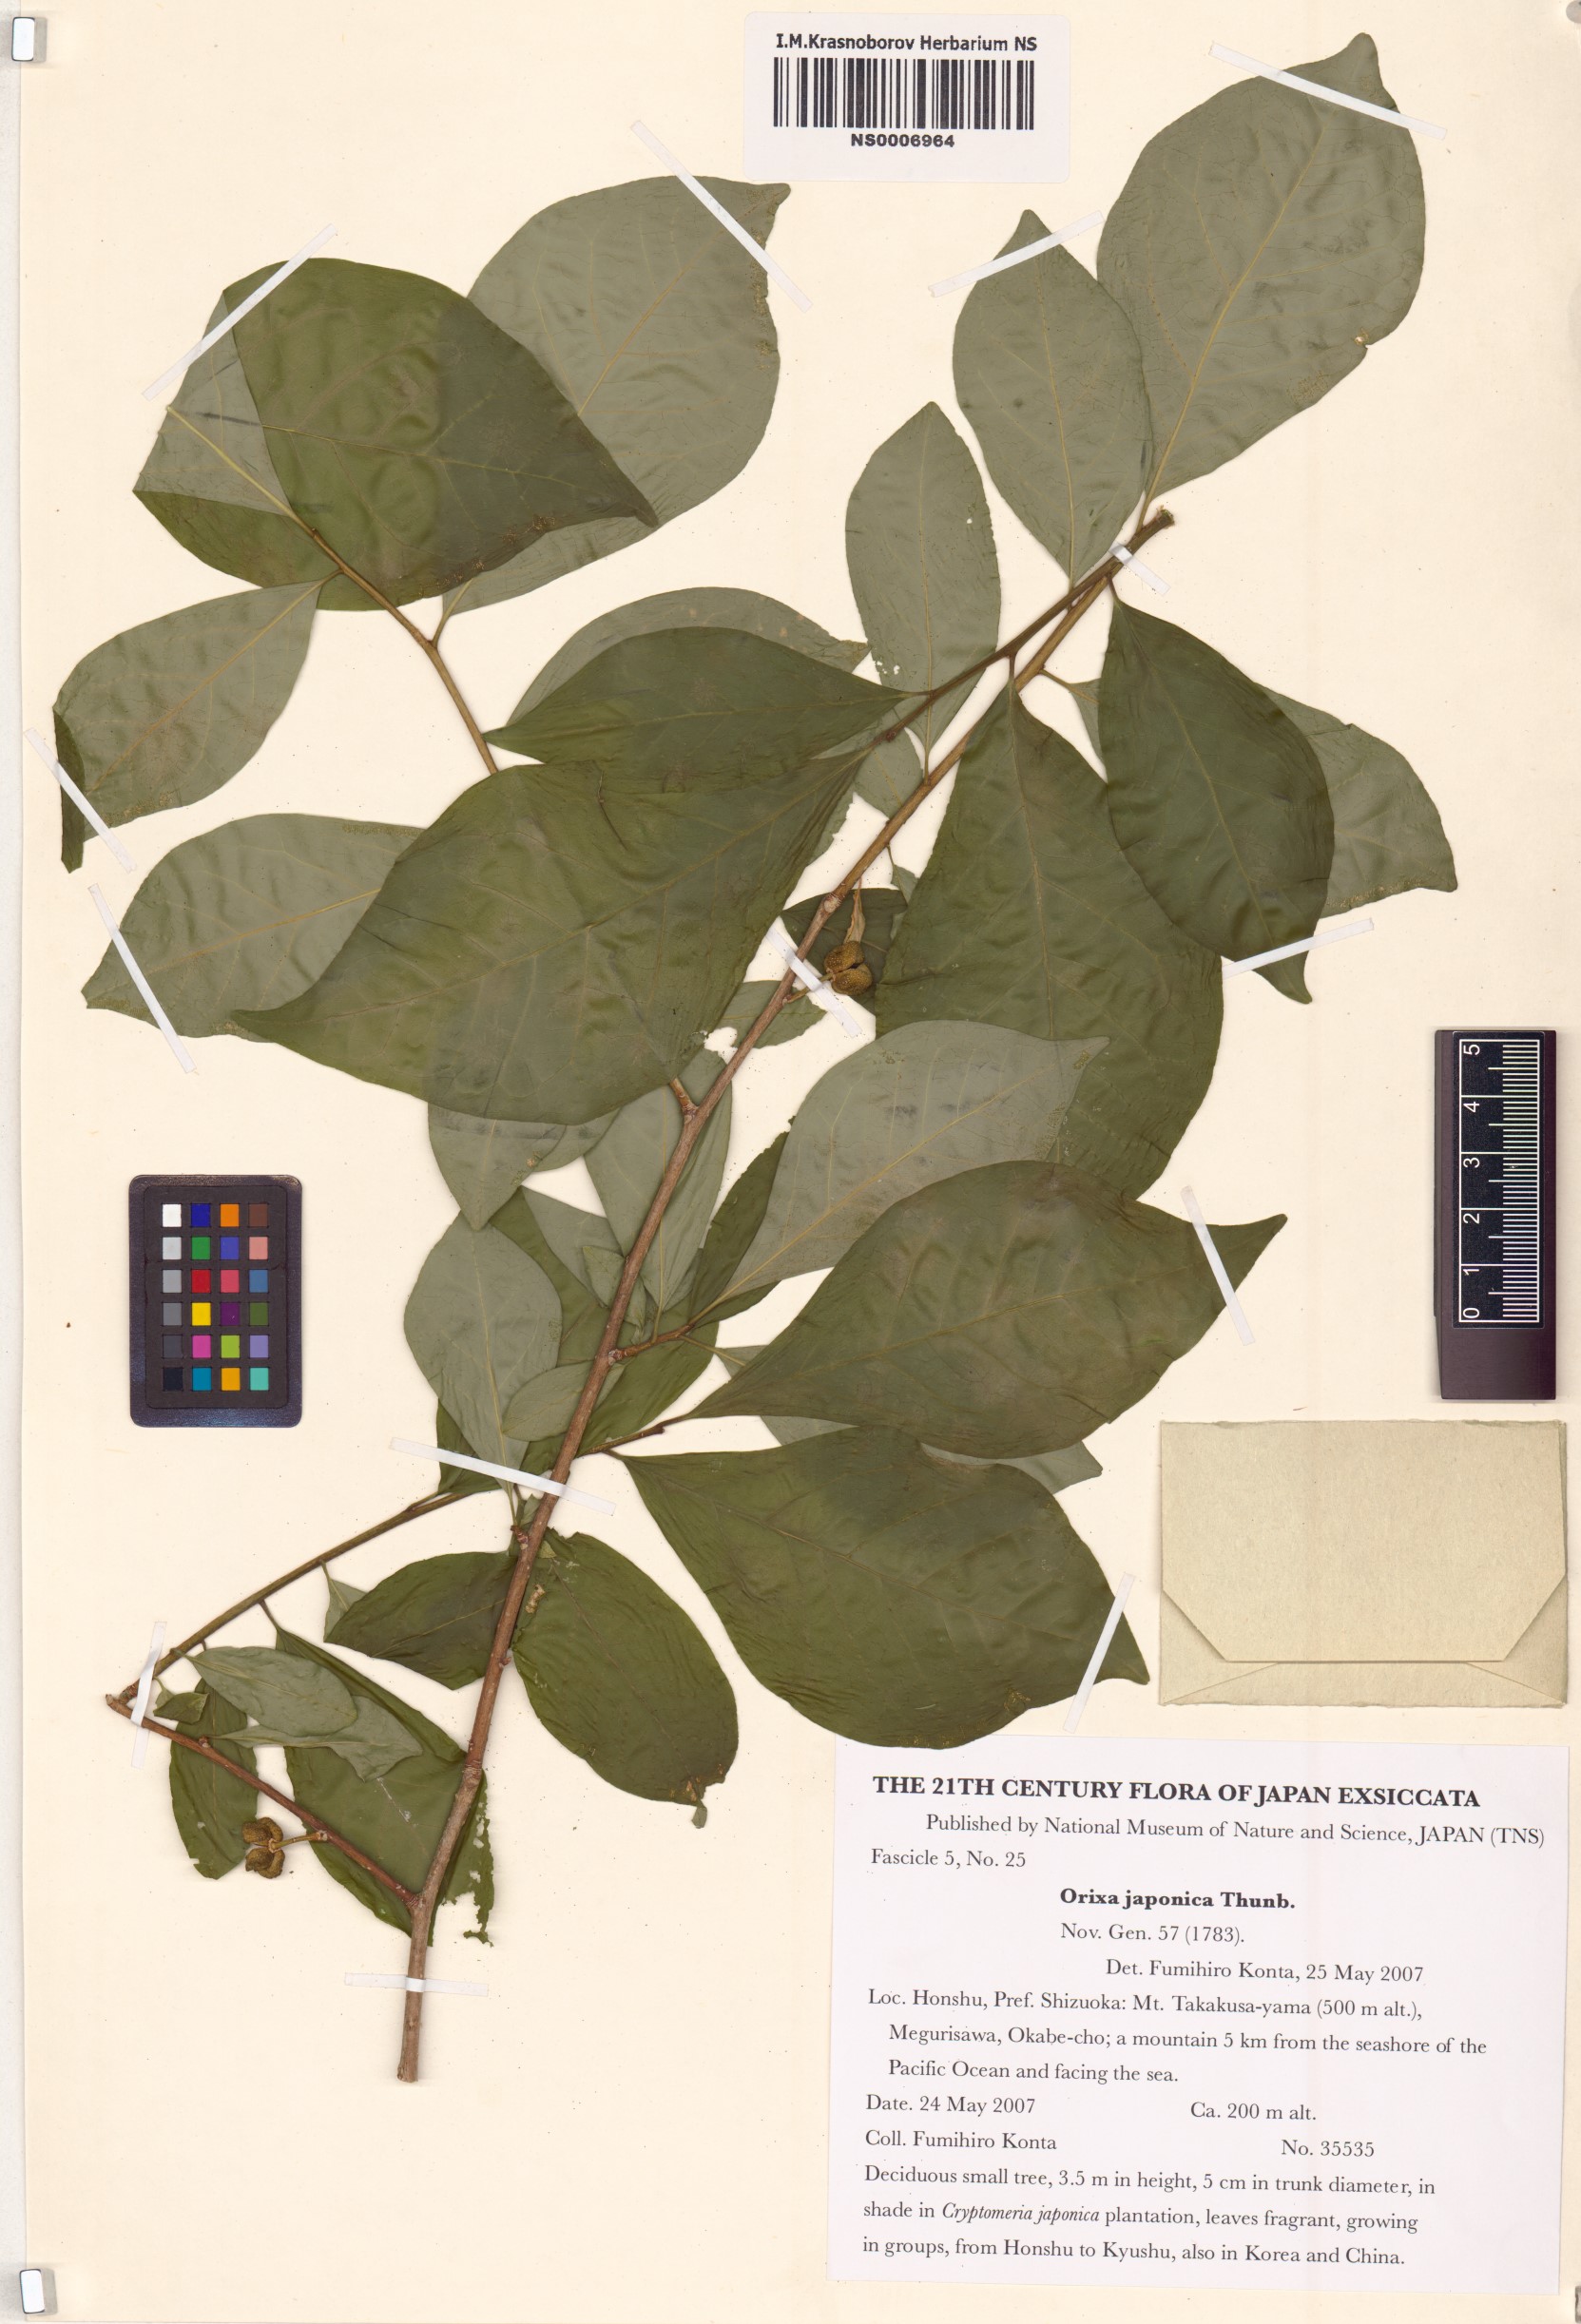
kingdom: Plantae
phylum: Tracheophyta
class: Magnoliopsida
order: Sapindales
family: Rutaceae
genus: Orixa
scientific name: Orixa japonica
